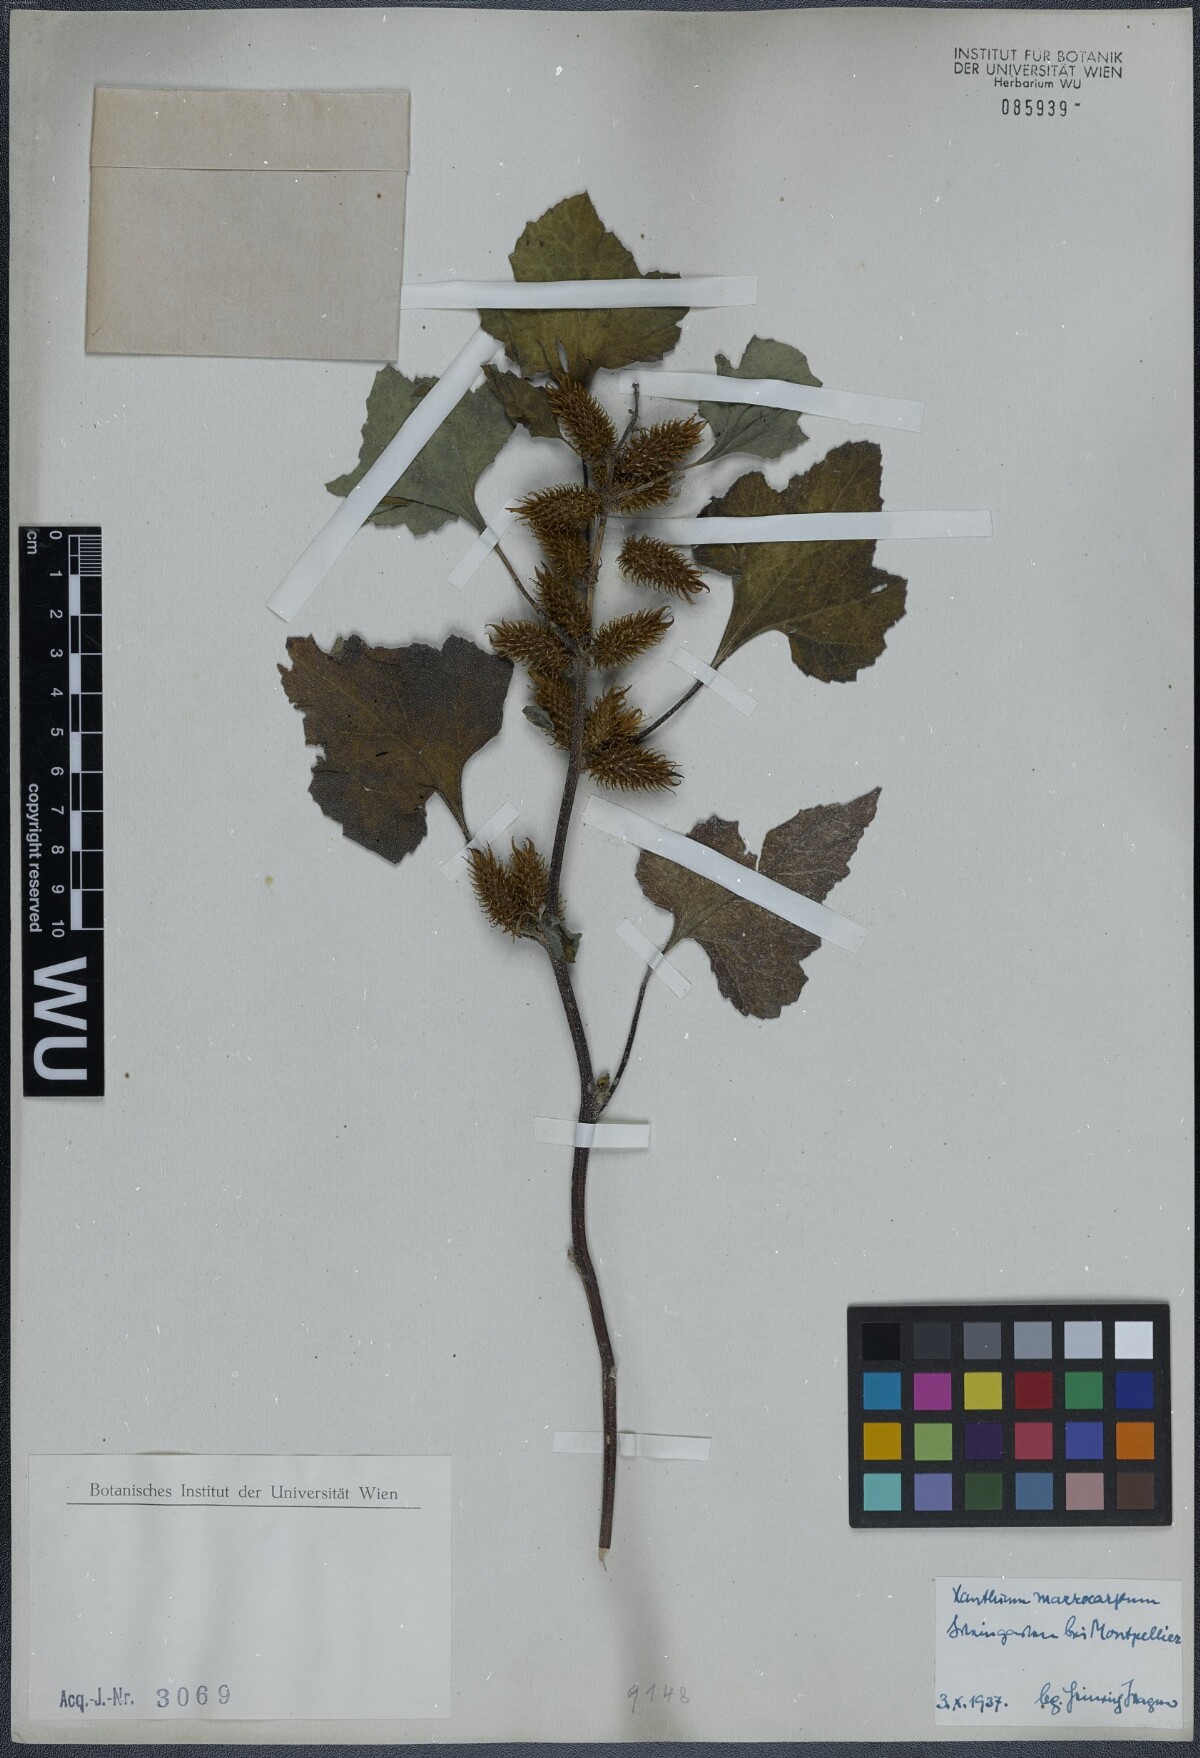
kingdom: Plantae
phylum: Tracheophyta
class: Magnoliopsida
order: Asterales
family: Asteraceae
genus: Xanthium
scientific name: Xanthium strumarium
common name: Rough cocklebur
